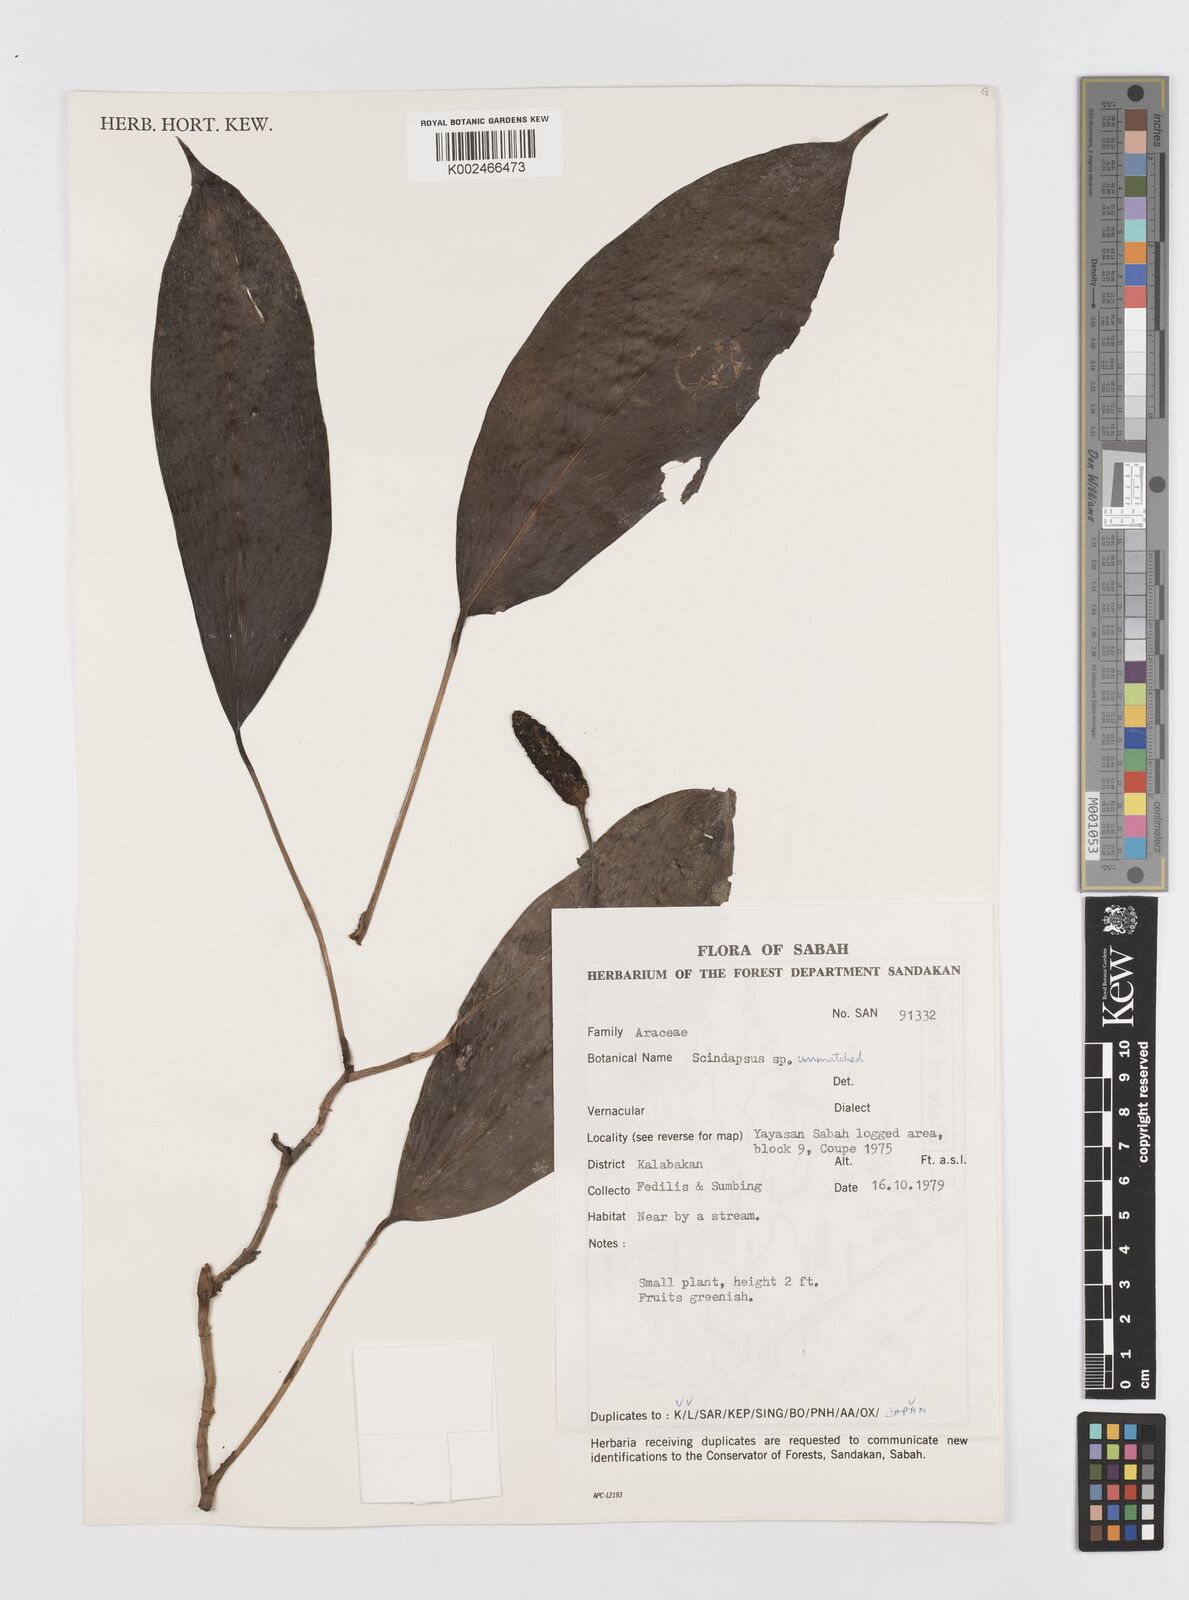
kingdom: Plantae
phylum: Tracheophyta
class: Liliopsida
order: Alismatales
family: Araceae
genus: Scindapsus
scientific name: Scindapsus curranii
